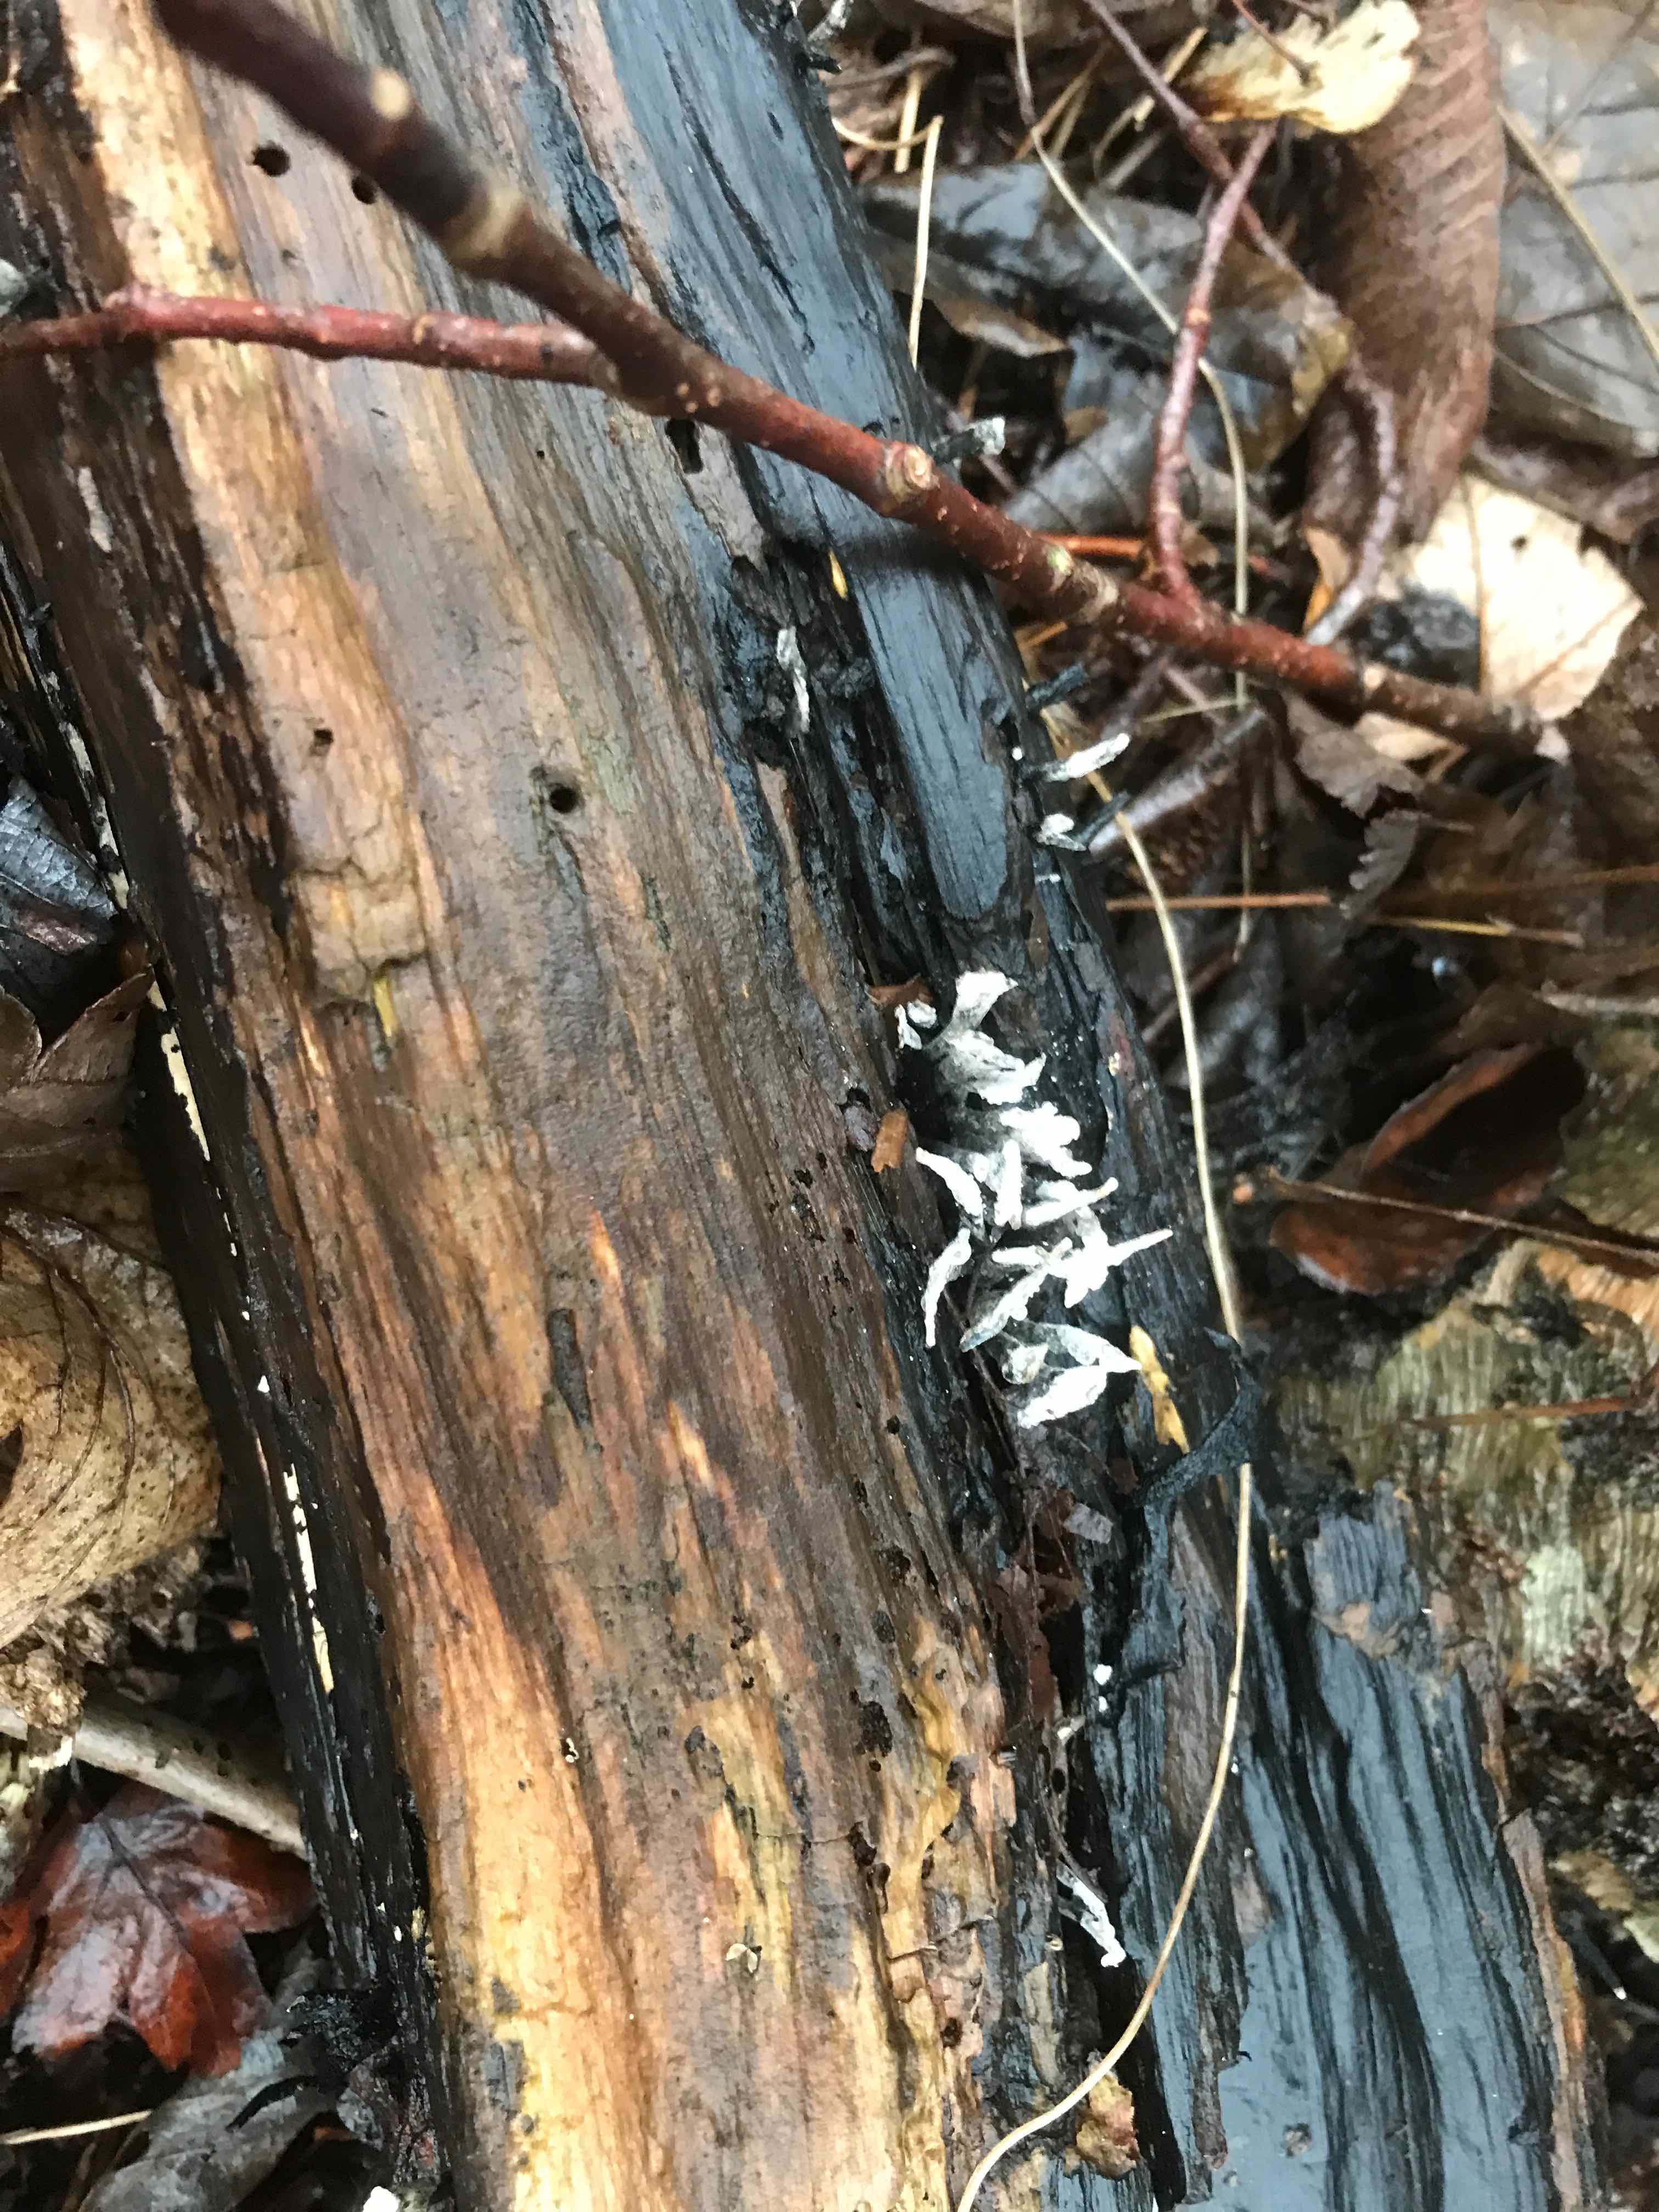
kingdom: Fungi
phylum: Ascomycota
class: Sordariomycetes
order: Xylariales
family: Xylariaceae
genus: Xylaria
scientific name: Xylaria hypoxylon
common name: grenet stødsvamp
